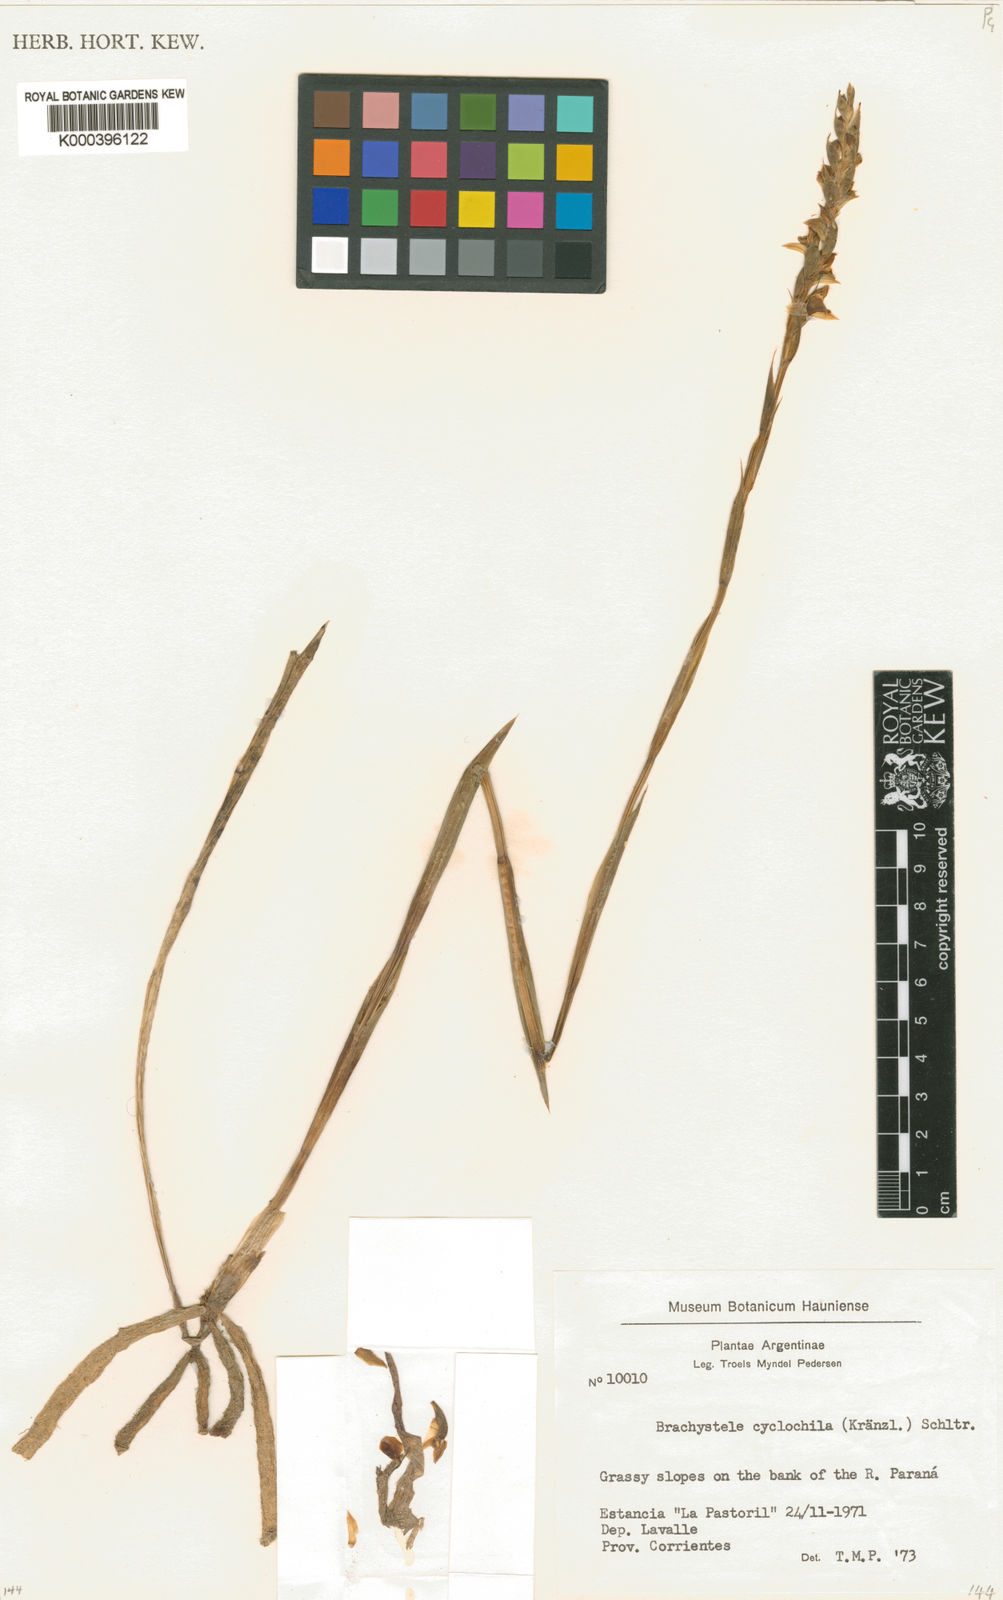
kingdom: Plantae
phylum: Tracheophyta
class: Liliopsida
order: Asparagales
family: Orchidaceae
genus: Brachystele
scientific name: Brachystele cyclochila
